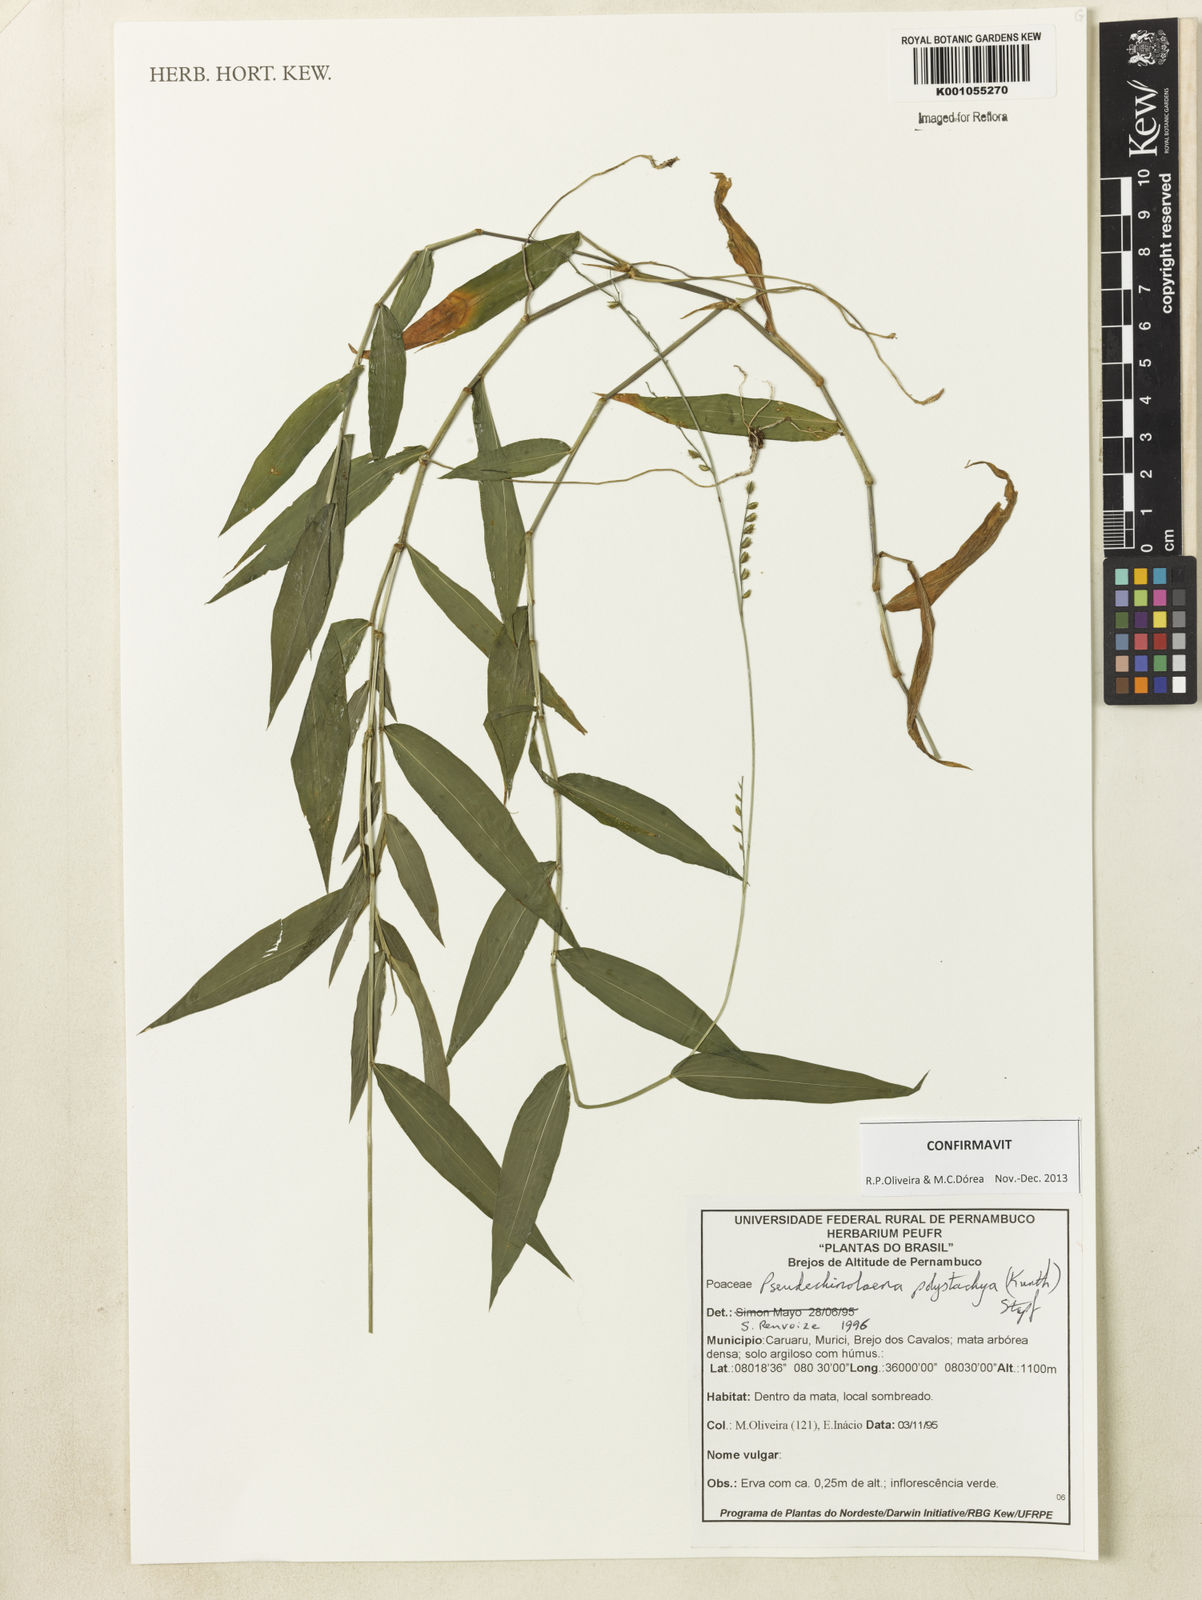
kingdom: Plantae
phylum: Tracheophyta
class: Liliopsida
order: Poales
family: Poaceae
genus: Pseudechinolaena
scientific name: Pseudechinolaena polystachya
